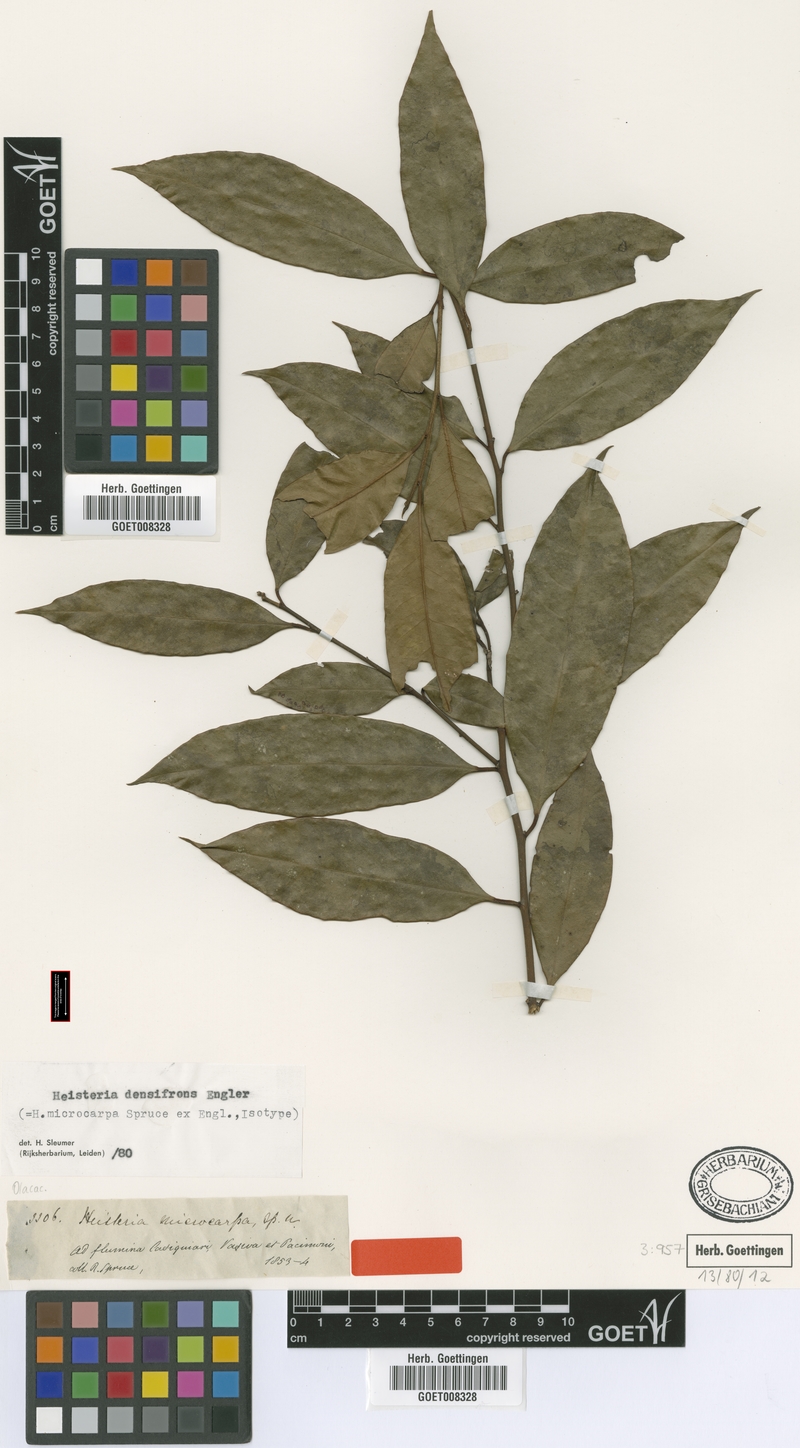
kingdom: Plantae
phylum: Tracheophyta
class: Magnoliopsida
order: Santalales
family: Erythropalaceae
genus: Heisteria
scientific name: Heisteria densifrons
